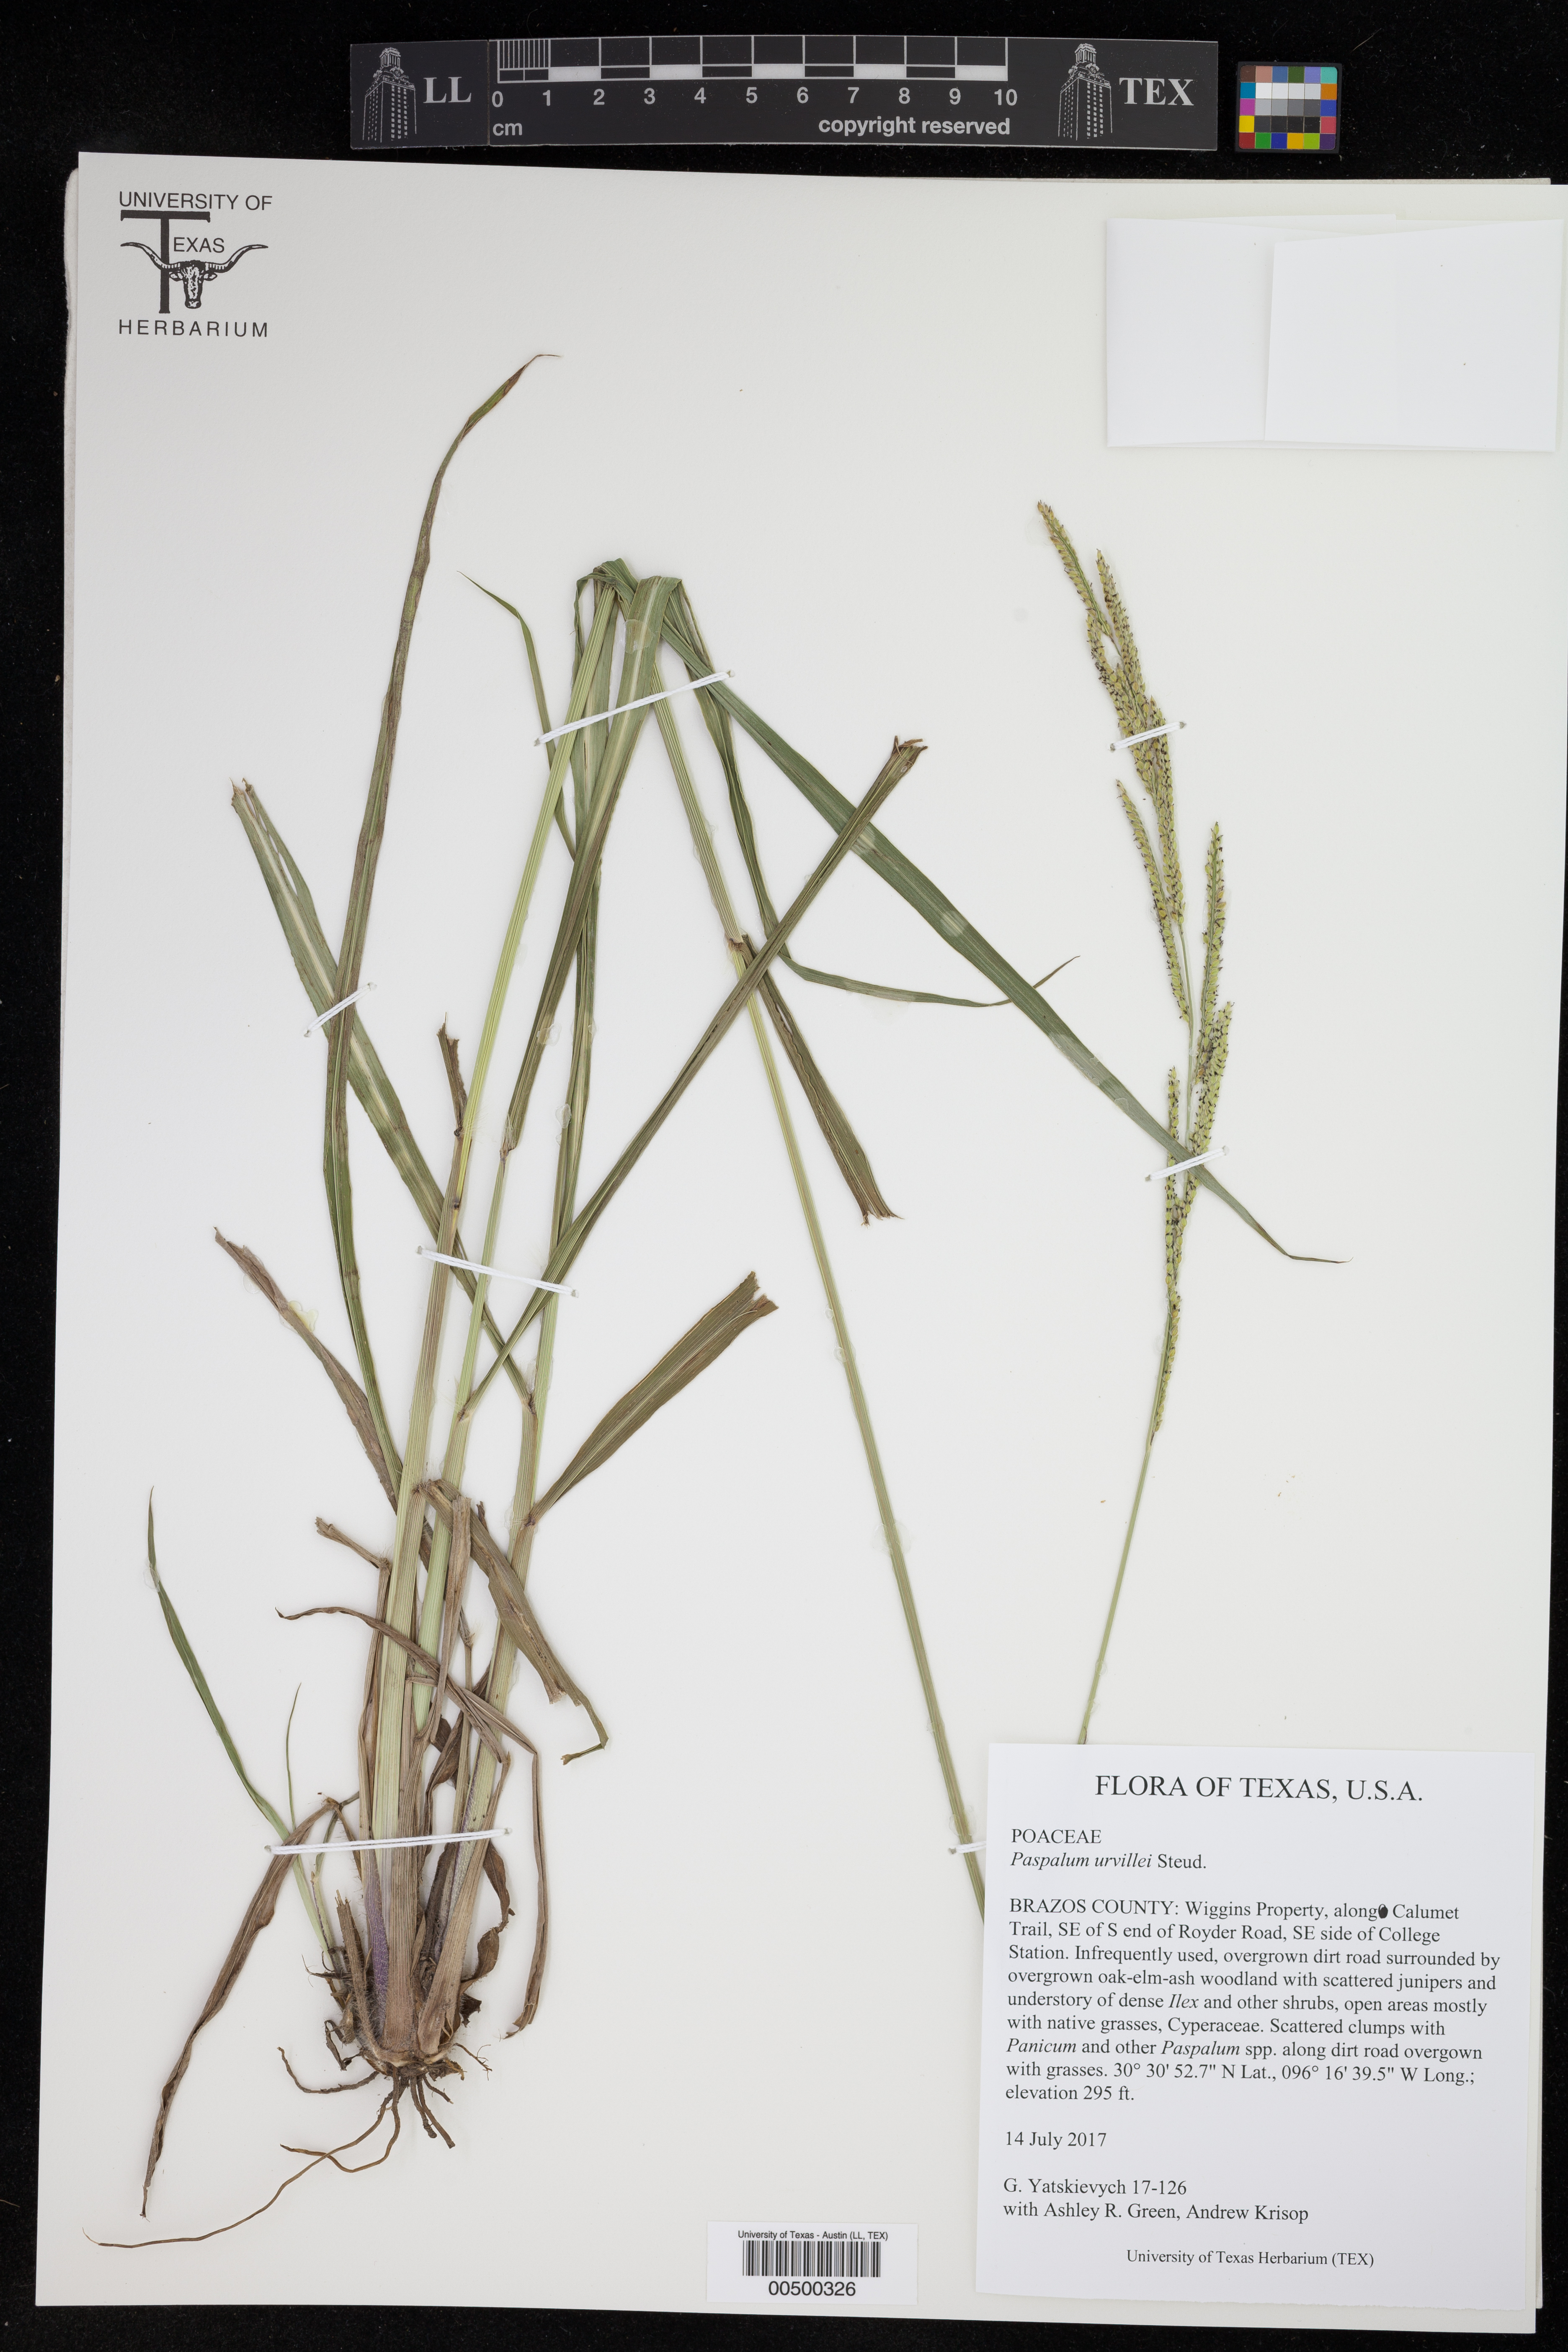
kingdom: Plantae
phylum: Tracheophyta
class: Liliopsida
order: Poales
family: Poaceae
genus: Paspalum
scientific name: Paspalum urvillei
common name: Vasey's grass
